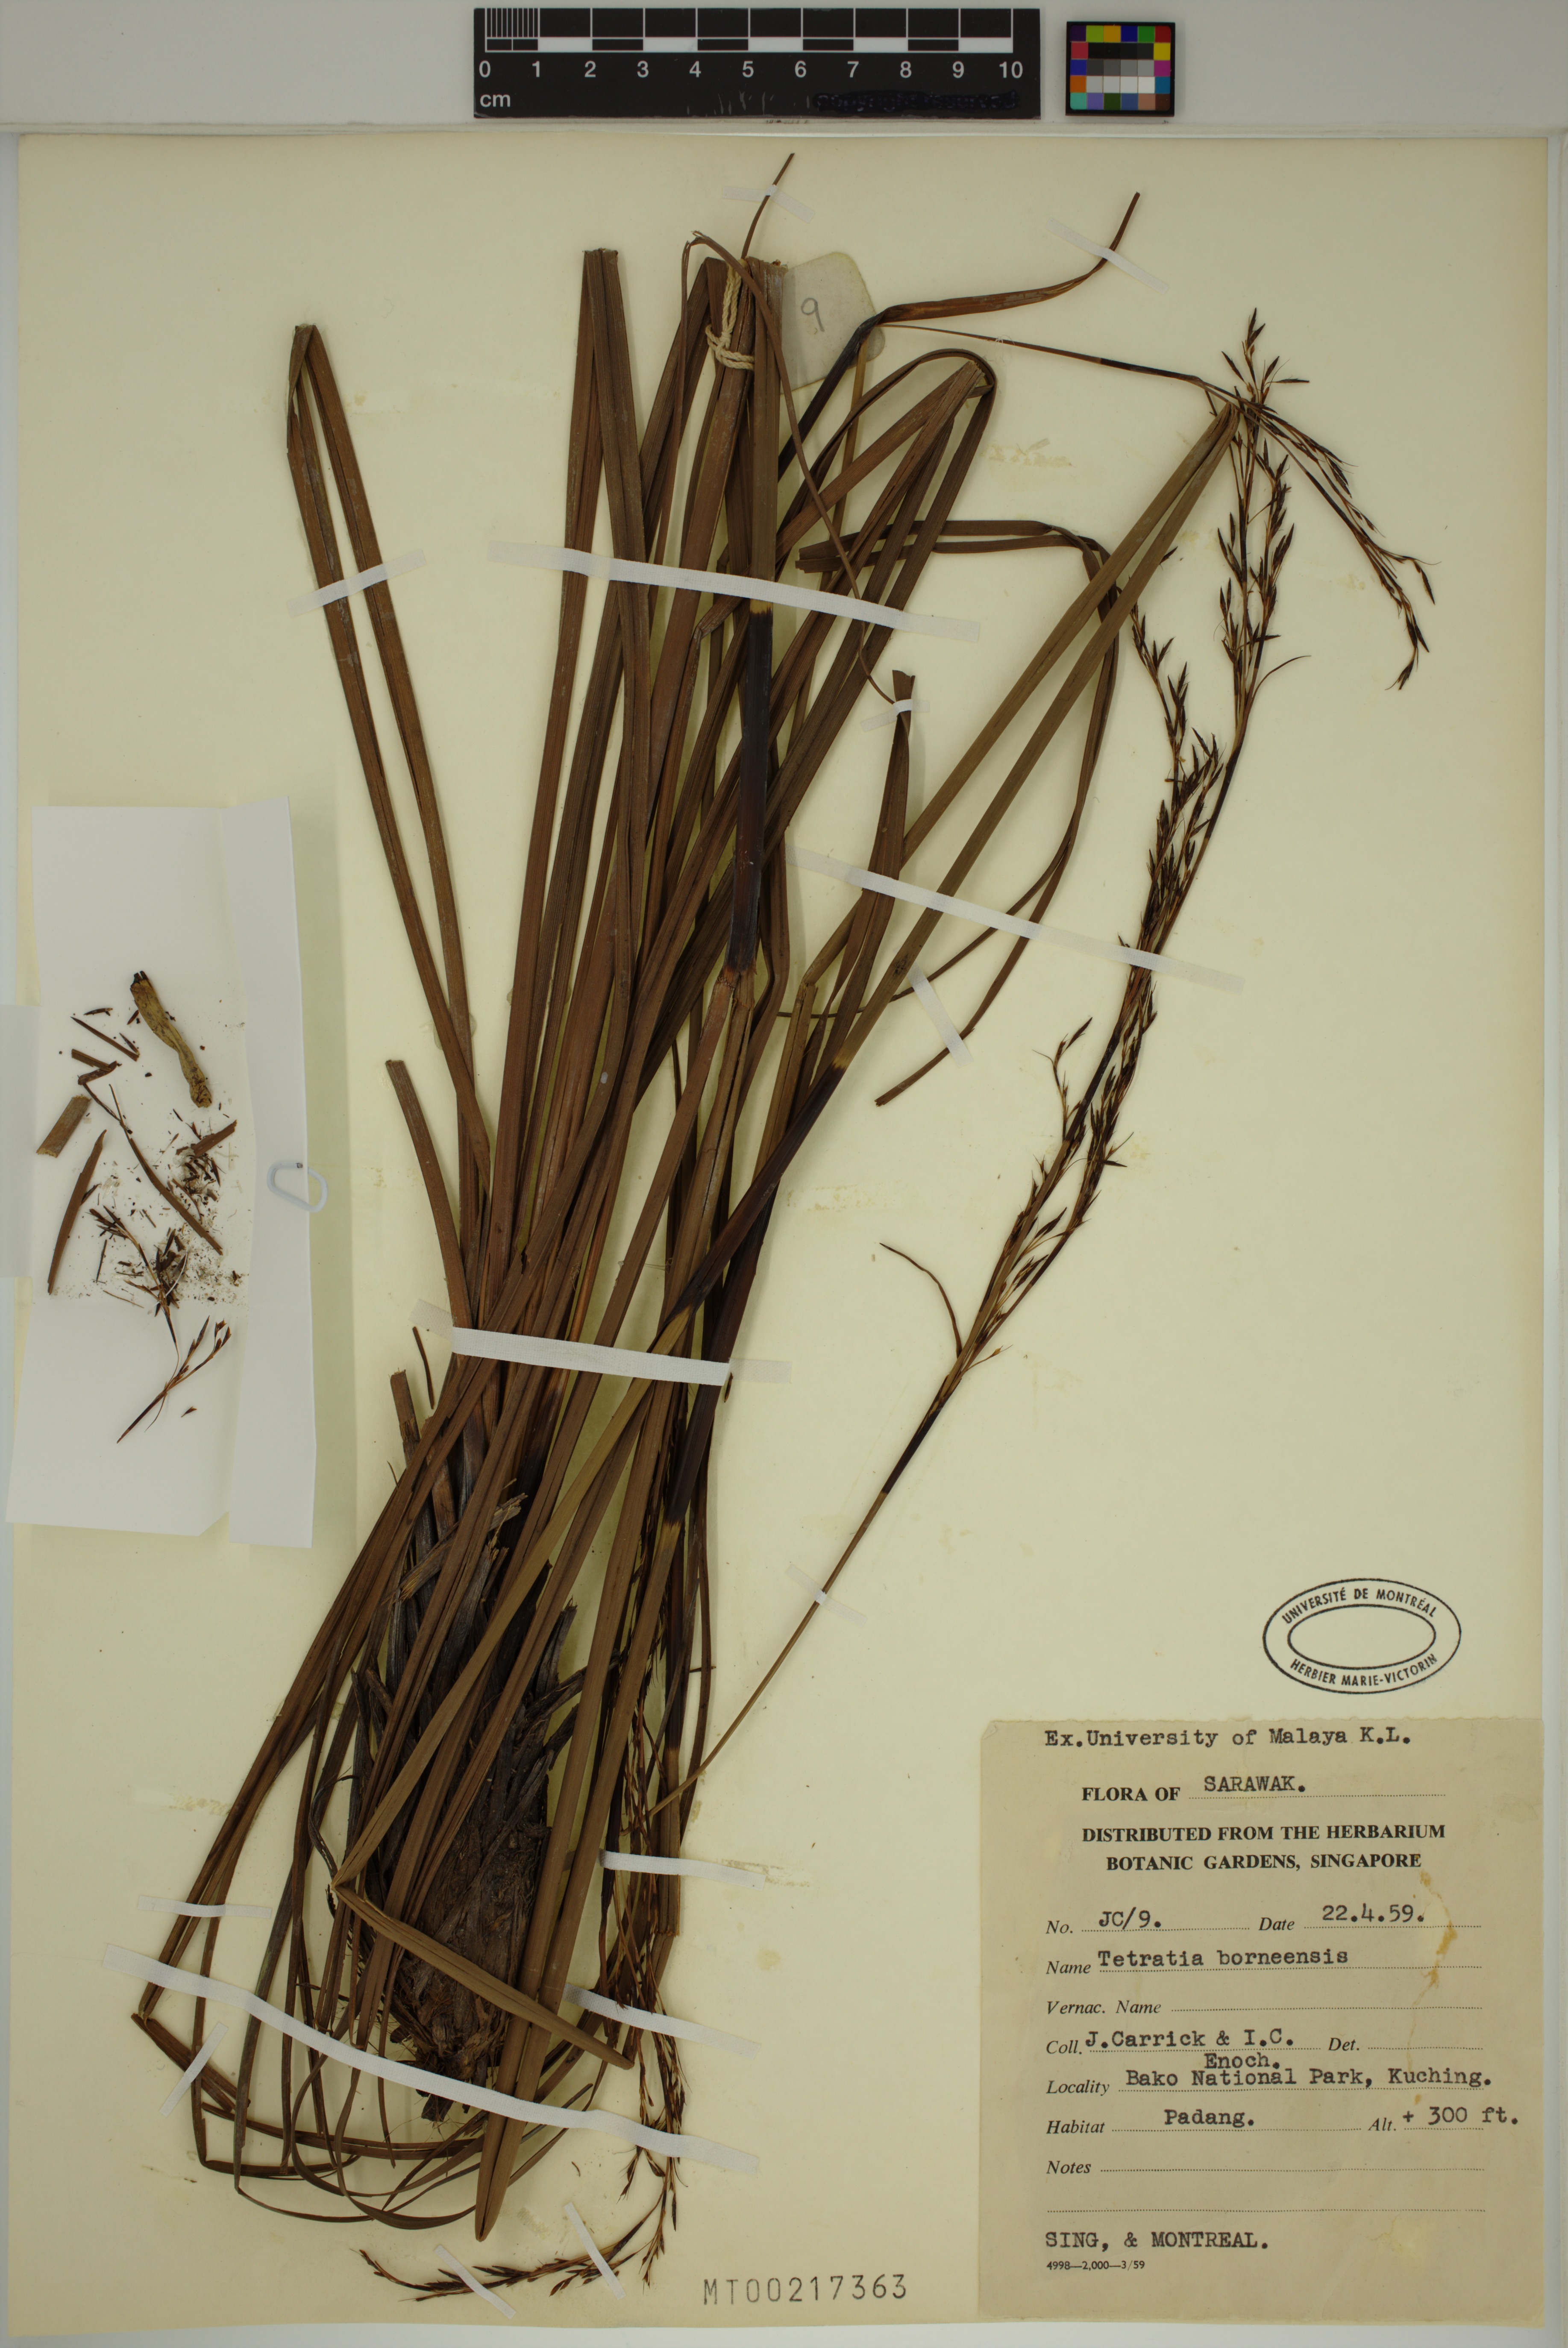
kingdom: Plantae
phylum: Tracheophyta
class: Liliopsida
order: Poales
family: Cyperaceae
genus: Tetraria
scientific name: Tetraria borneensis
